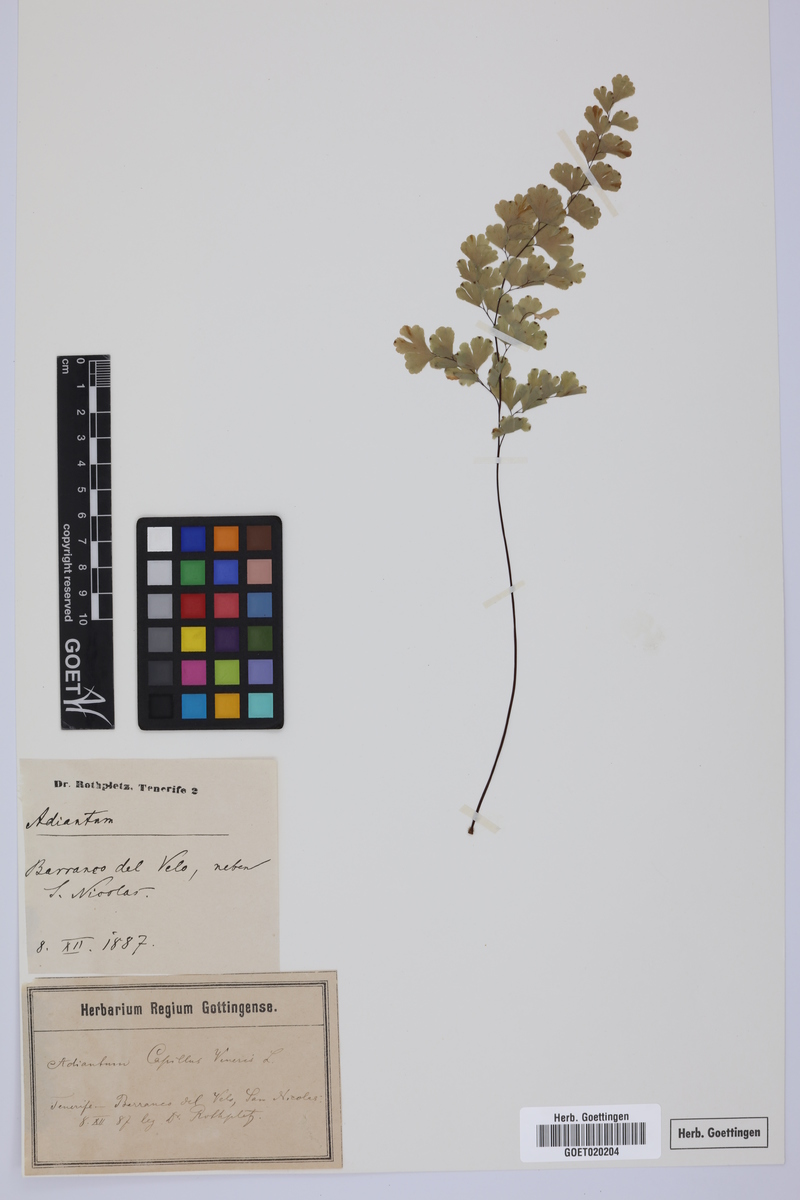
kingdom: Plantae
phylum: Tracheophyta
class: Polypodiopsida
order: Polypodiales
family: Pteridaceae
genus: Adiantum
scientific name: Adiantum capillus-veneris
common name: Maidenhair fern
